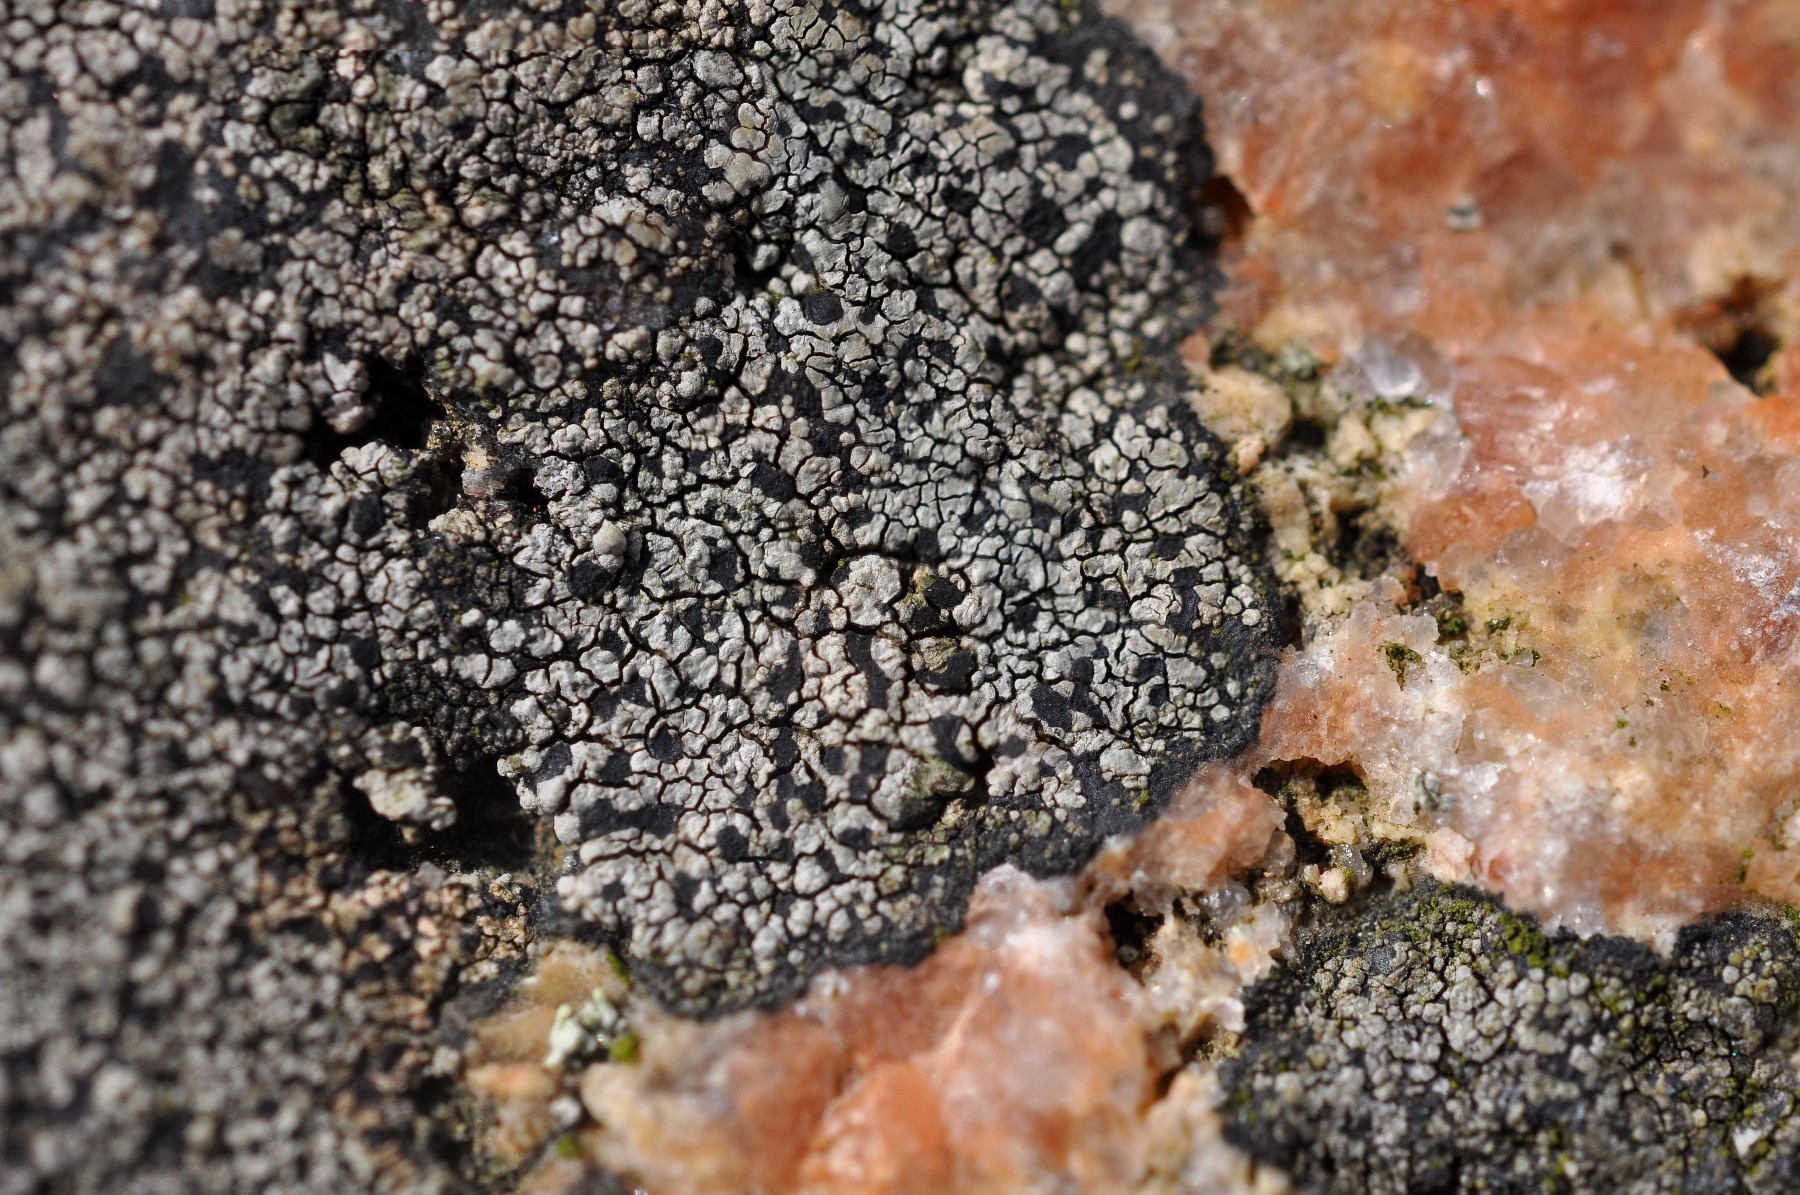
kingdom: Fungi
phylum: Ascomycota
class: Lecanoromycetes
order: Rhizocarpales
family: Rhizocarpaceae
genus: Rhizocarpon
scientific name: Rhizocarpon richardii
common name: Kyst-landkortlav
